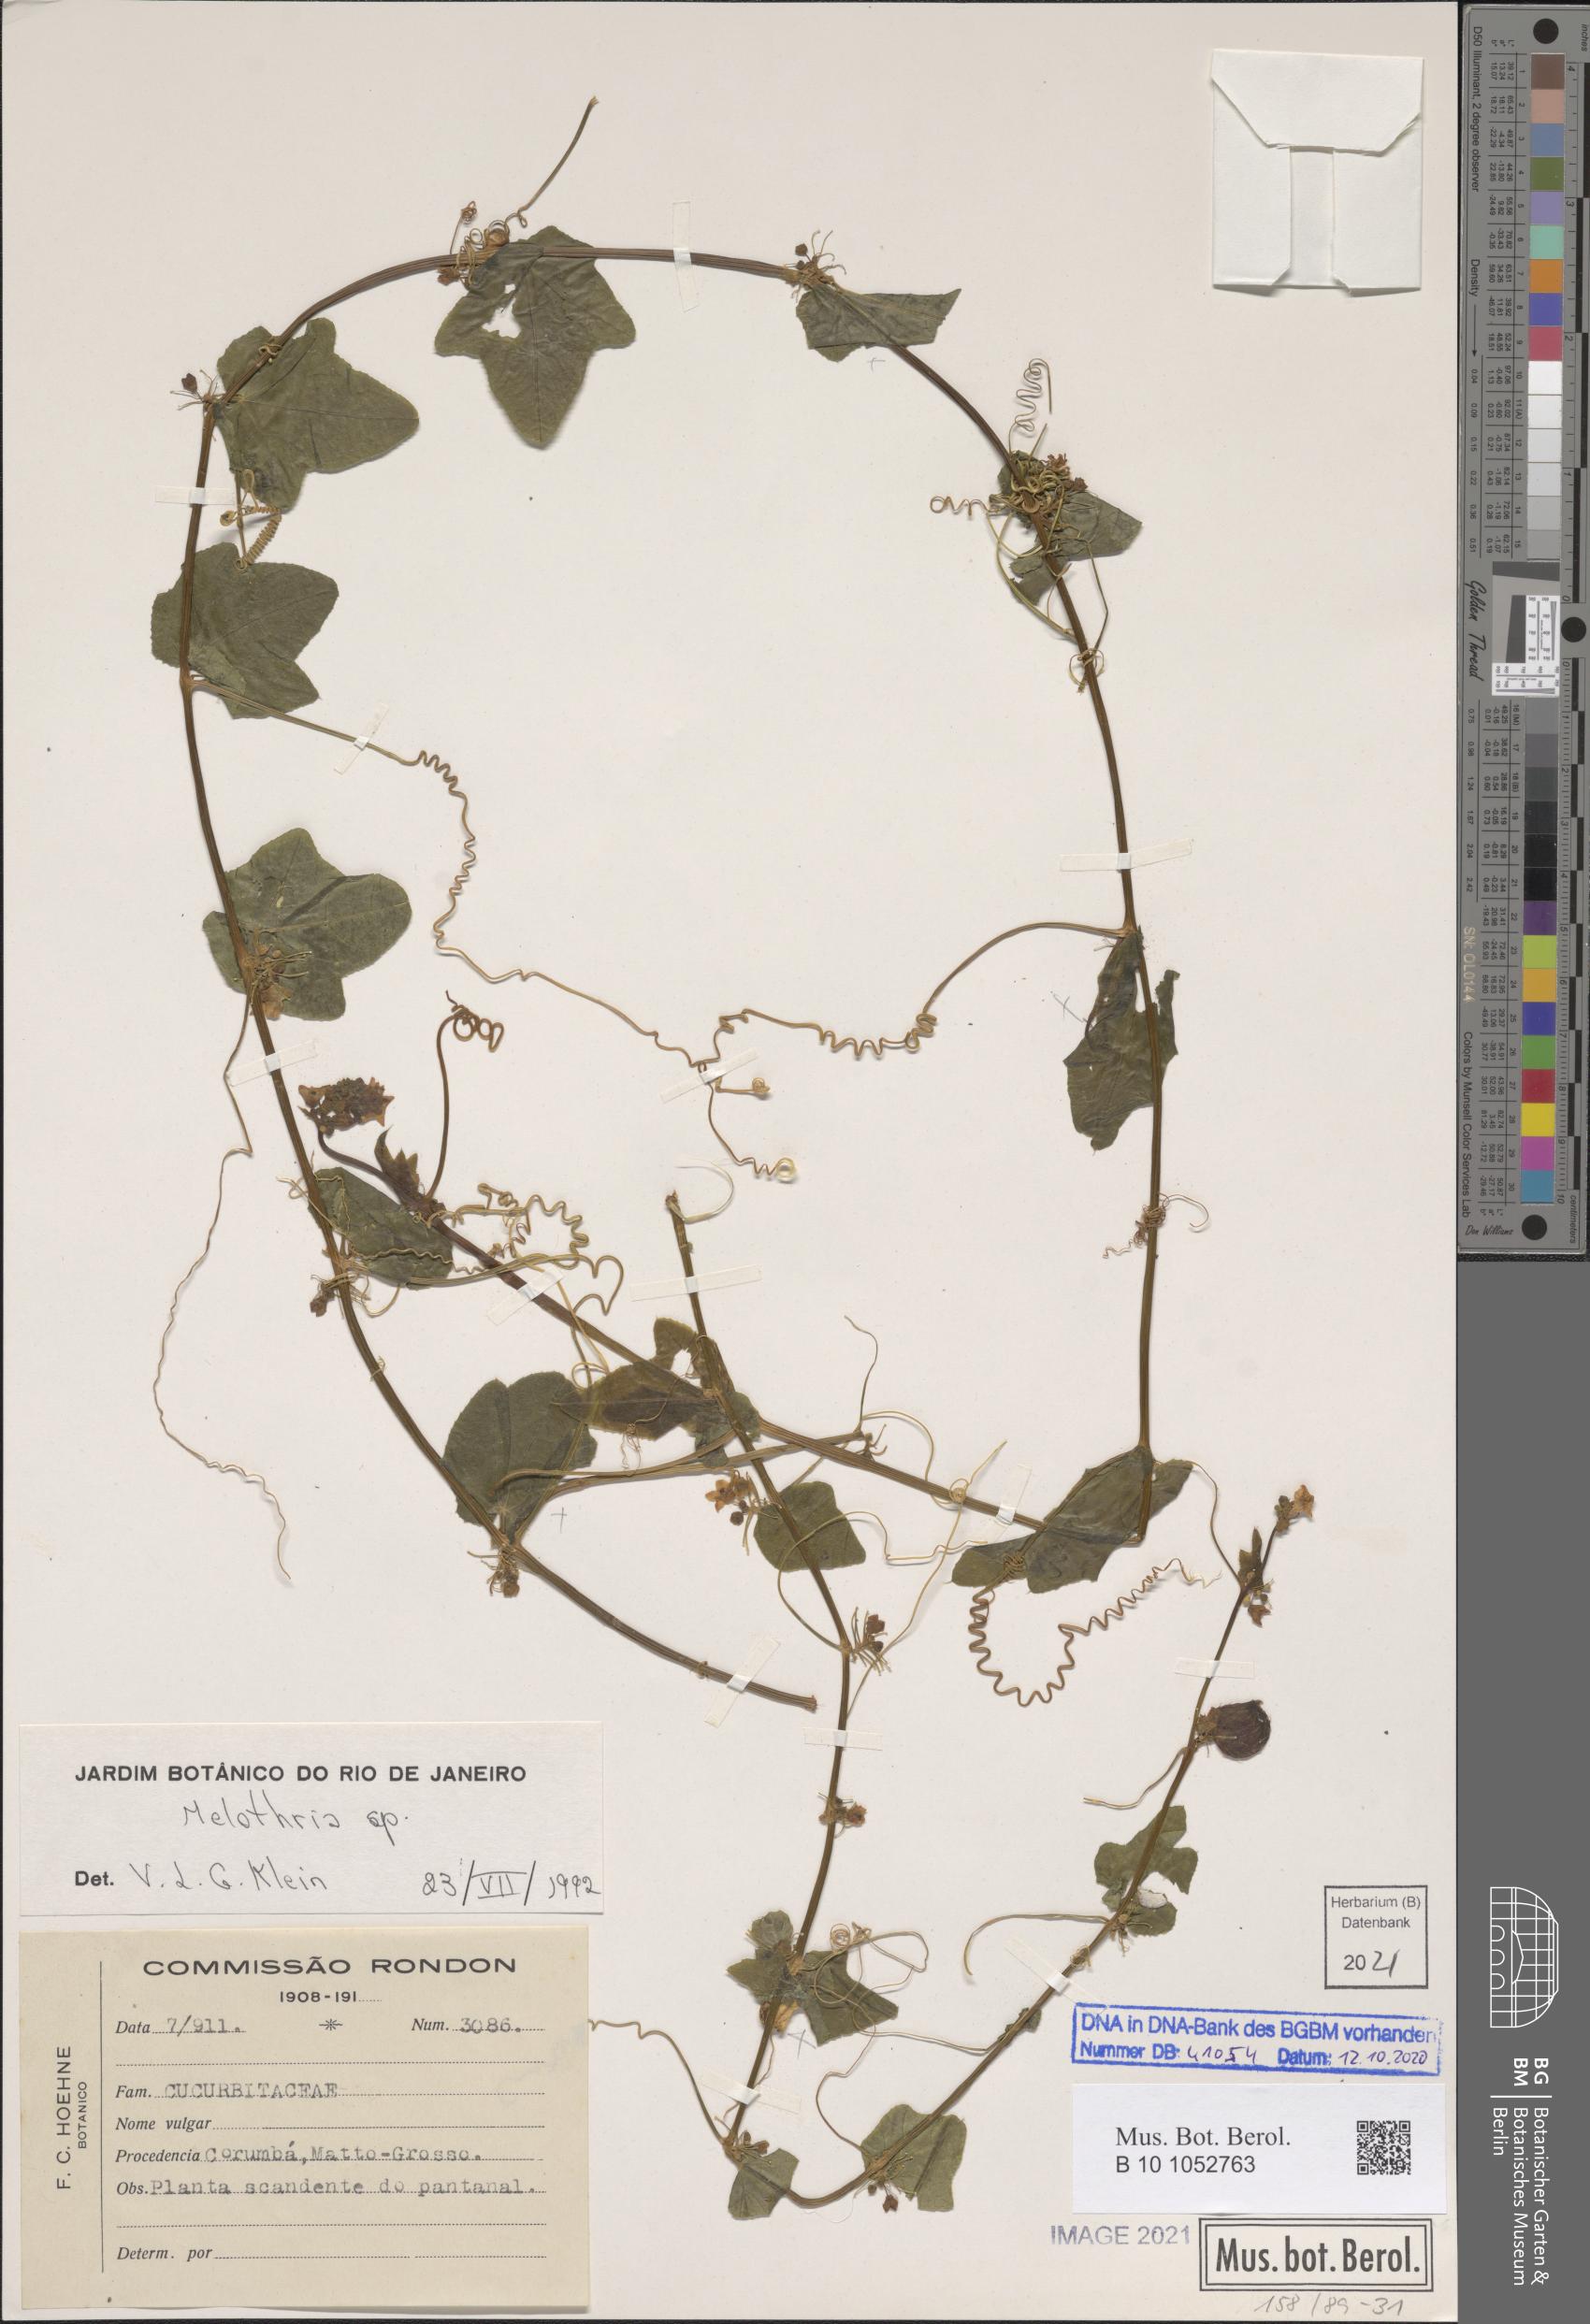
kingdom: Plantae
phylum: Tracheophyta
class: Magnoliopsida
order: Cucurbitales
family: Cucurbitaceae
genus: Melothria
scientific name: Melothria
